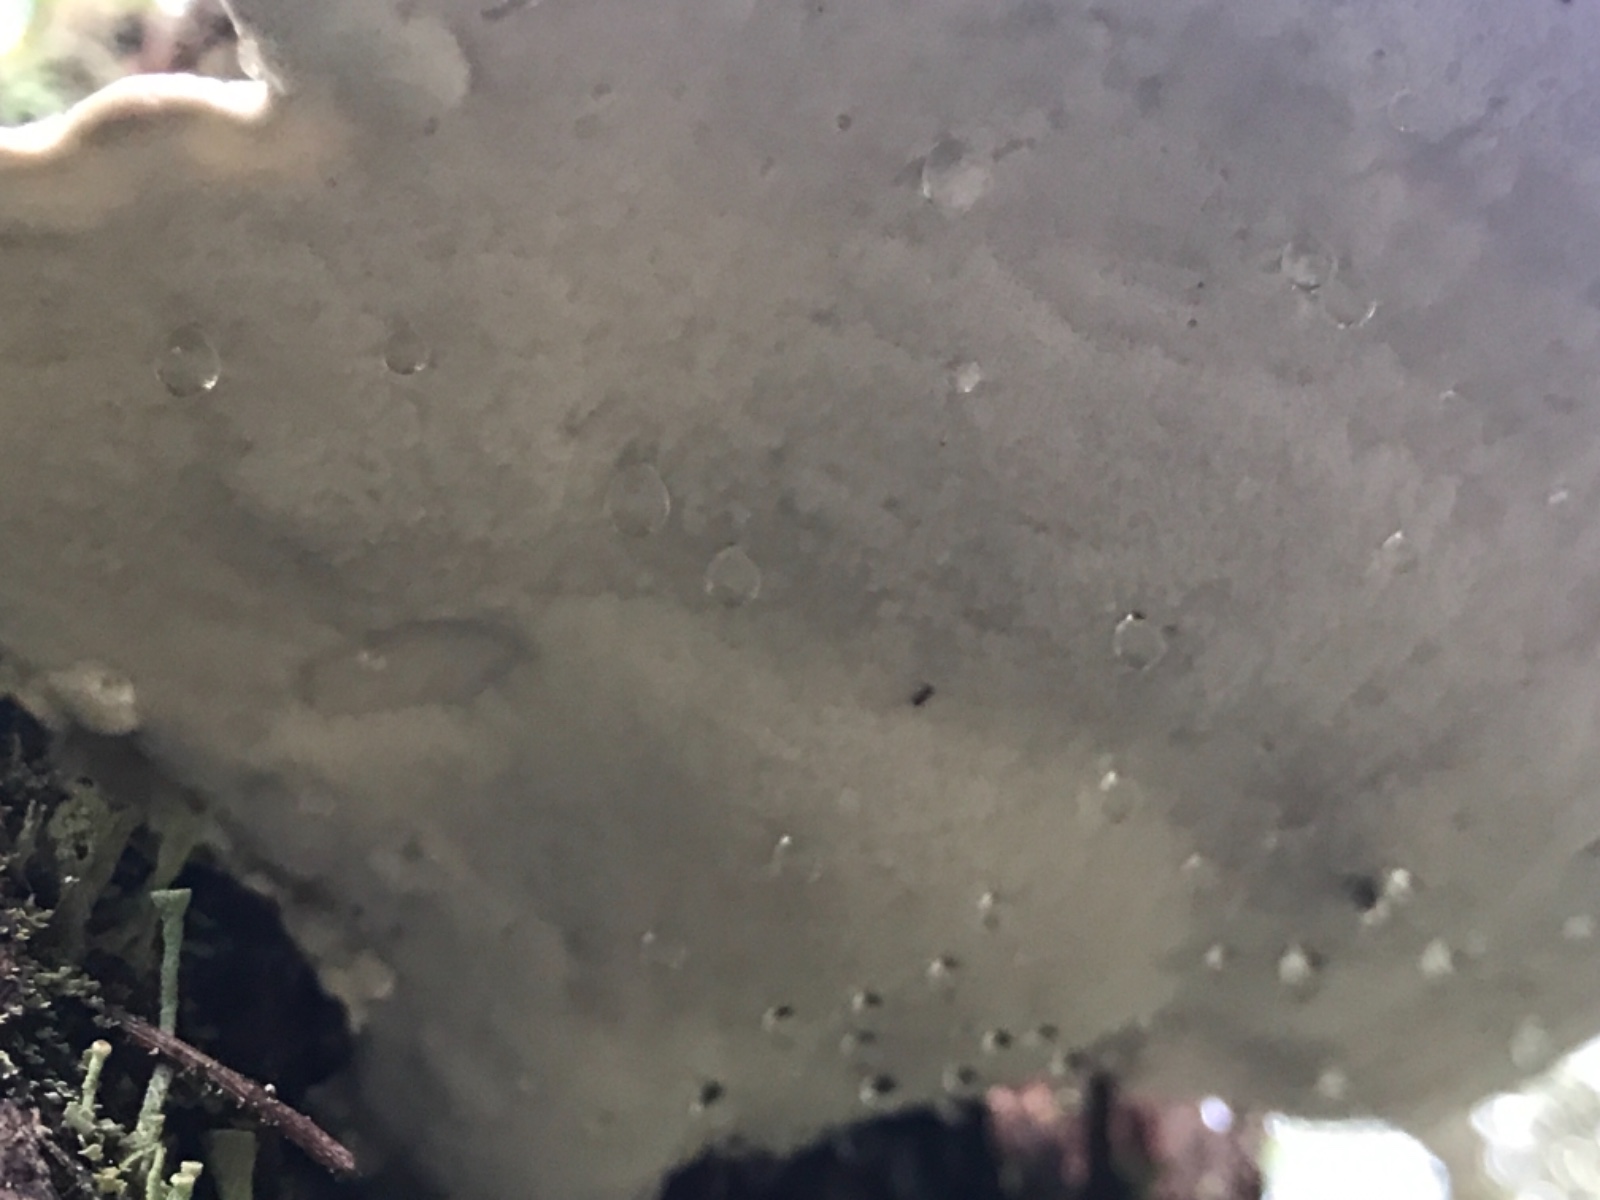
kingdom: Fungi
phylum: Basidiomycota
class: Agaricomycetes
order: Polyporales
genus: Calcipostia
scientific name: Calcipostia guttulata
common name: dråbe-kødporesvamp
